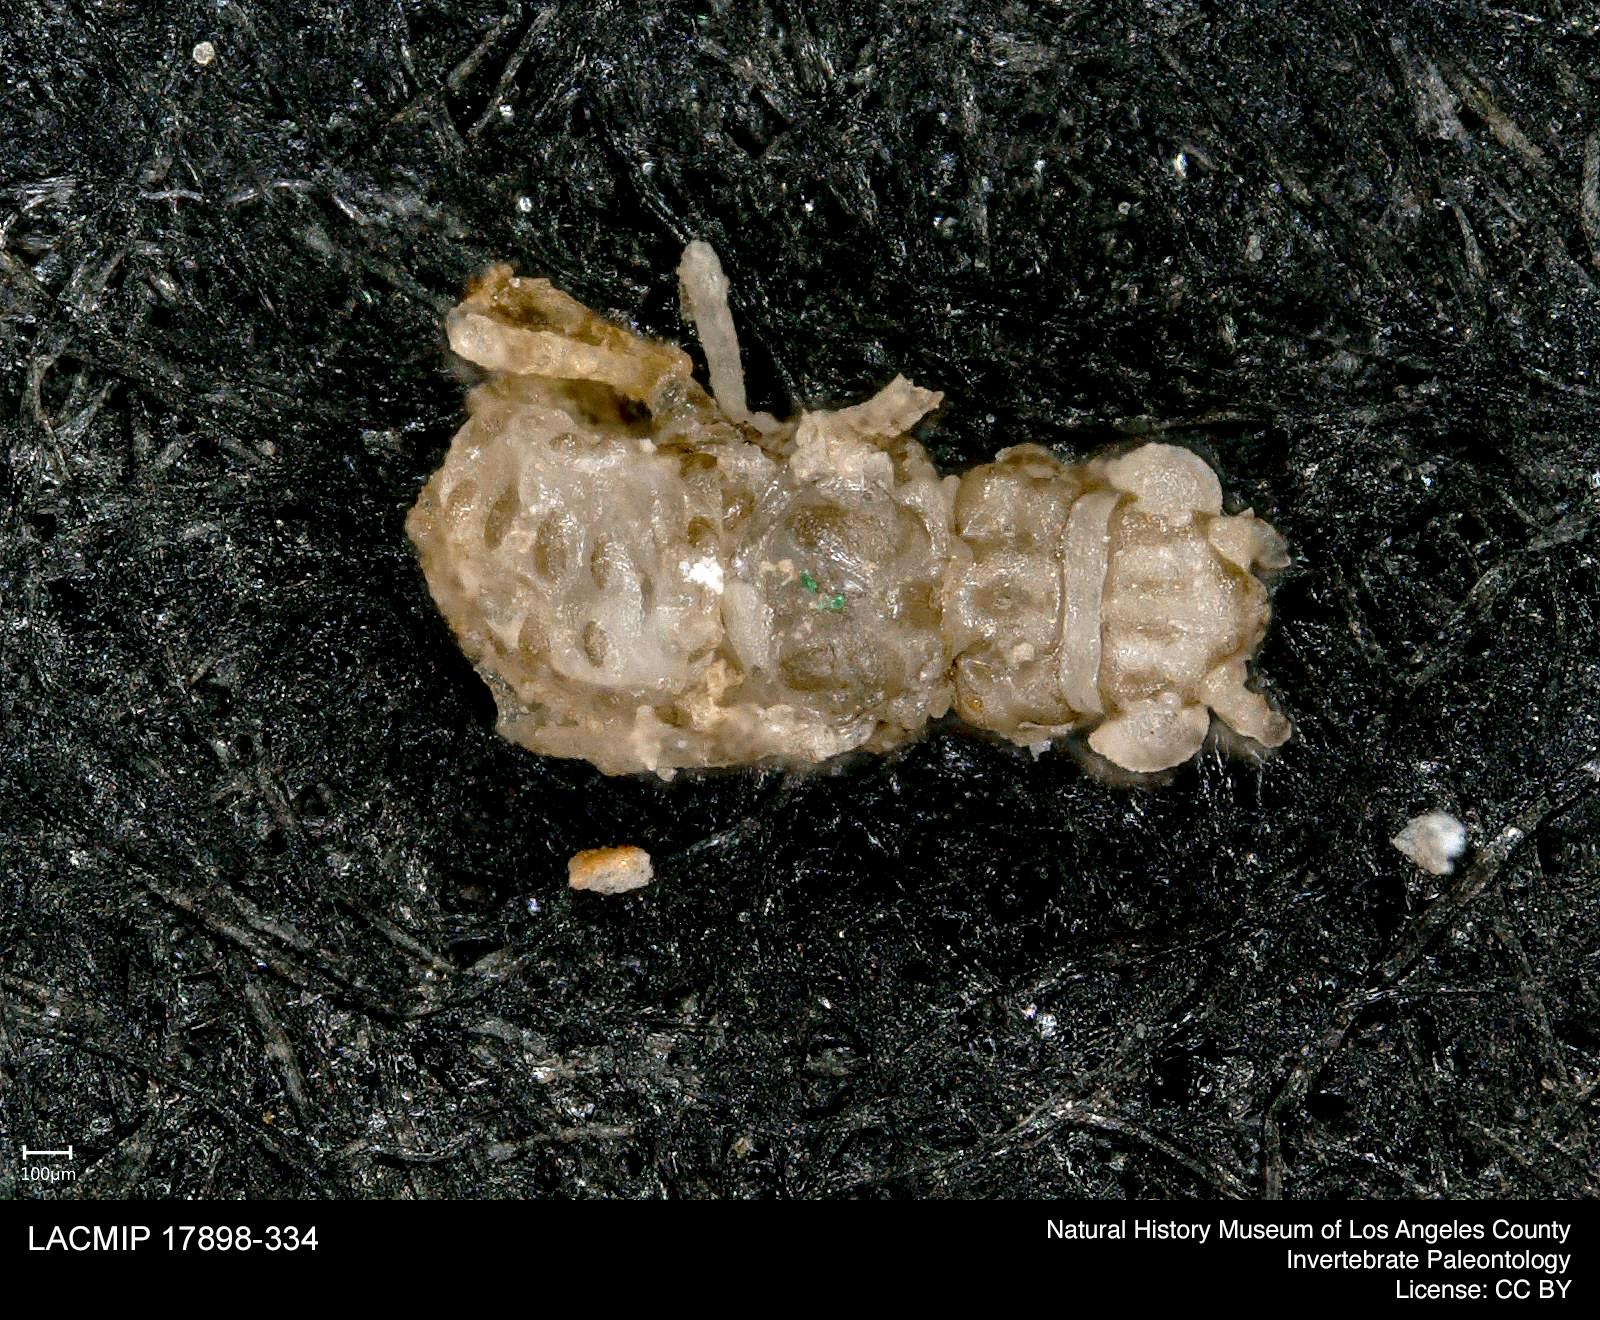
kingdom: Animalia
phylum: Arthropoda
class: Insecta
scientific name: Insecta
